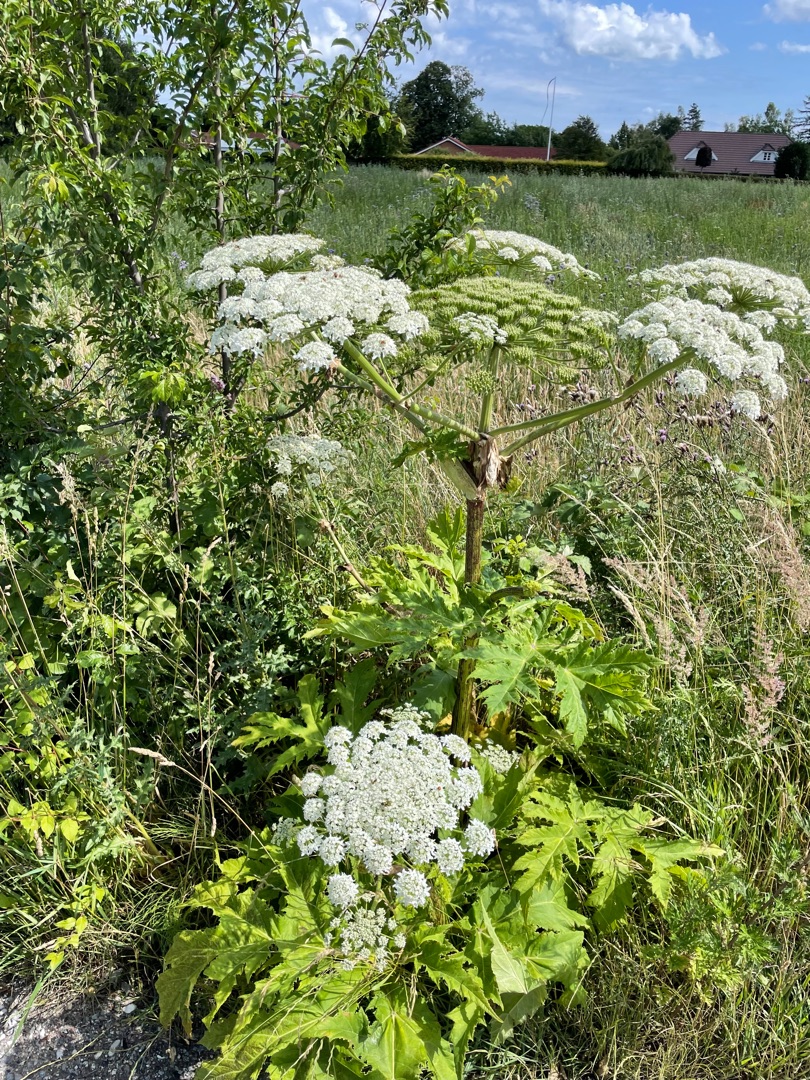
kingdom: Plantae
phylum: Tracheophyta
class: Magnoliopsida
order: Apiales
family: Apiaceae
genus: Heracleum
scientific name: Heracleum mantegazzianum
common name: Kæmpe-bjørneklo
